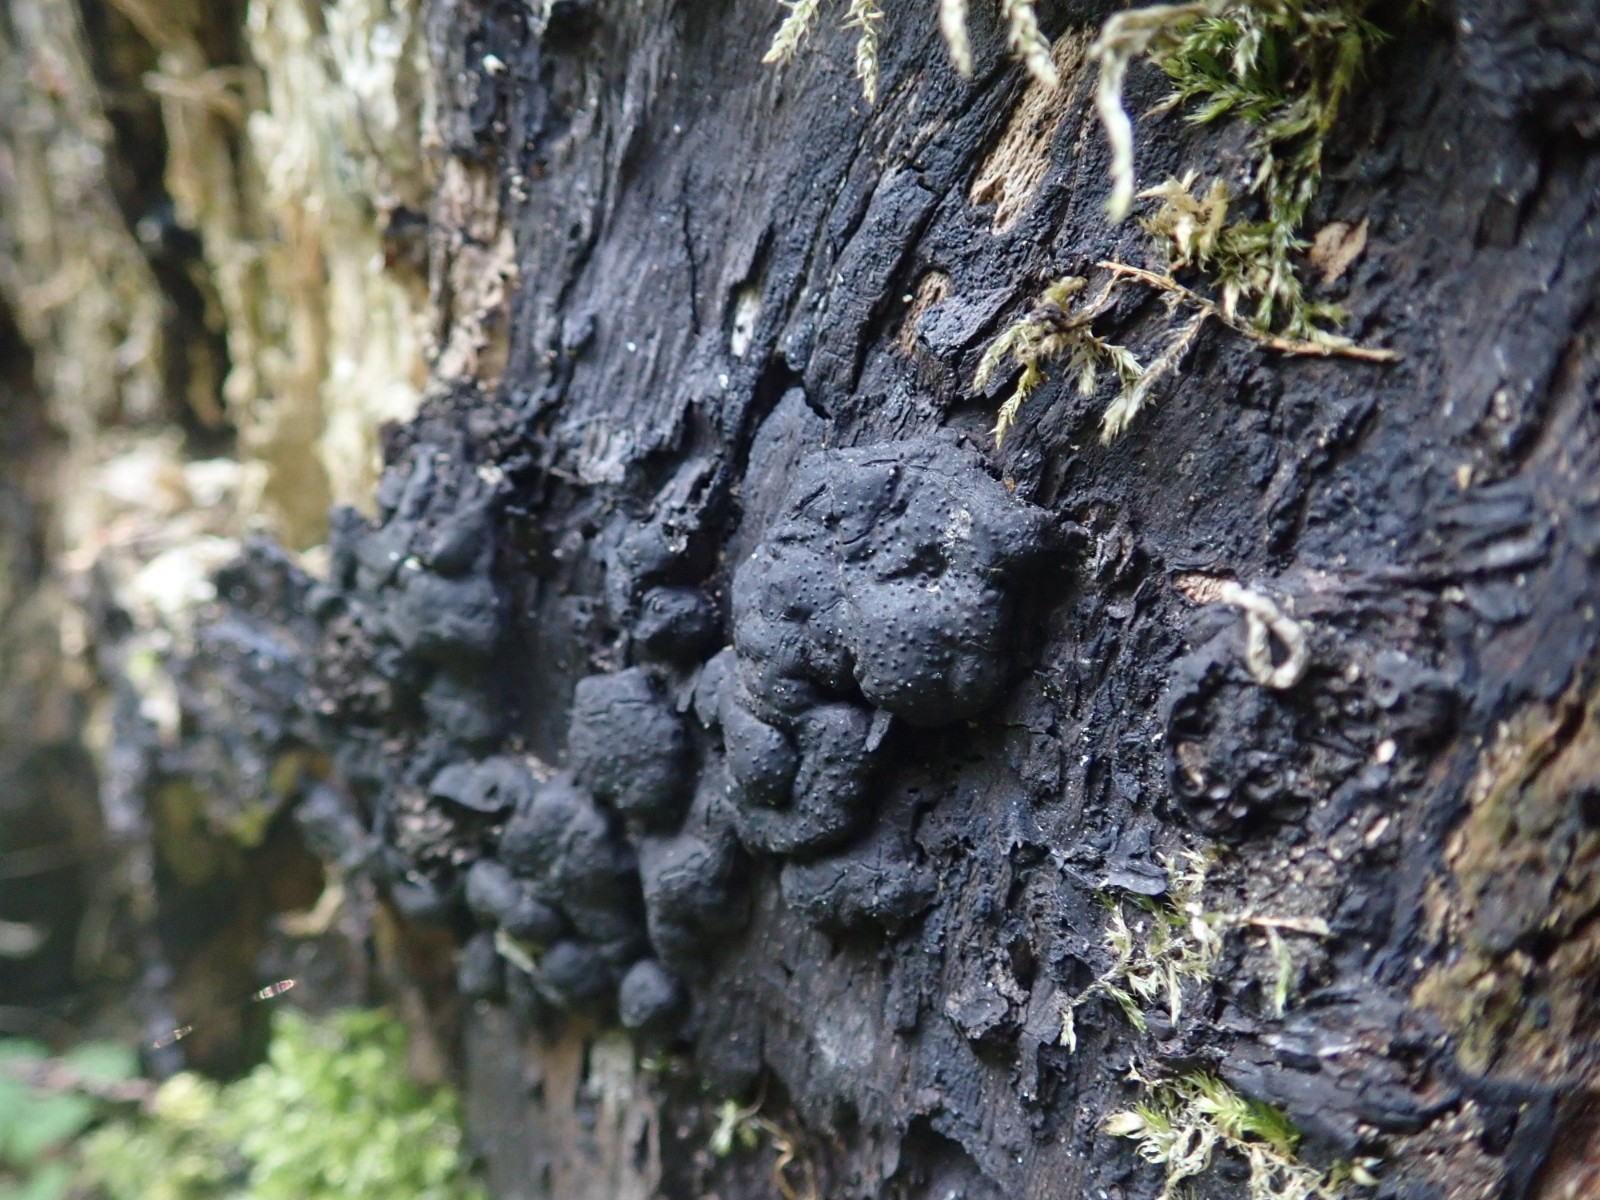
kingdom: Fungi
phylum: Ascomycota
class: Sordariomycetes
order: Xylariales
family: Xylariaceae
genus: Kretzschmaria
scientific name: Kretzschmaria deusta
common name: stor kulsvamp
